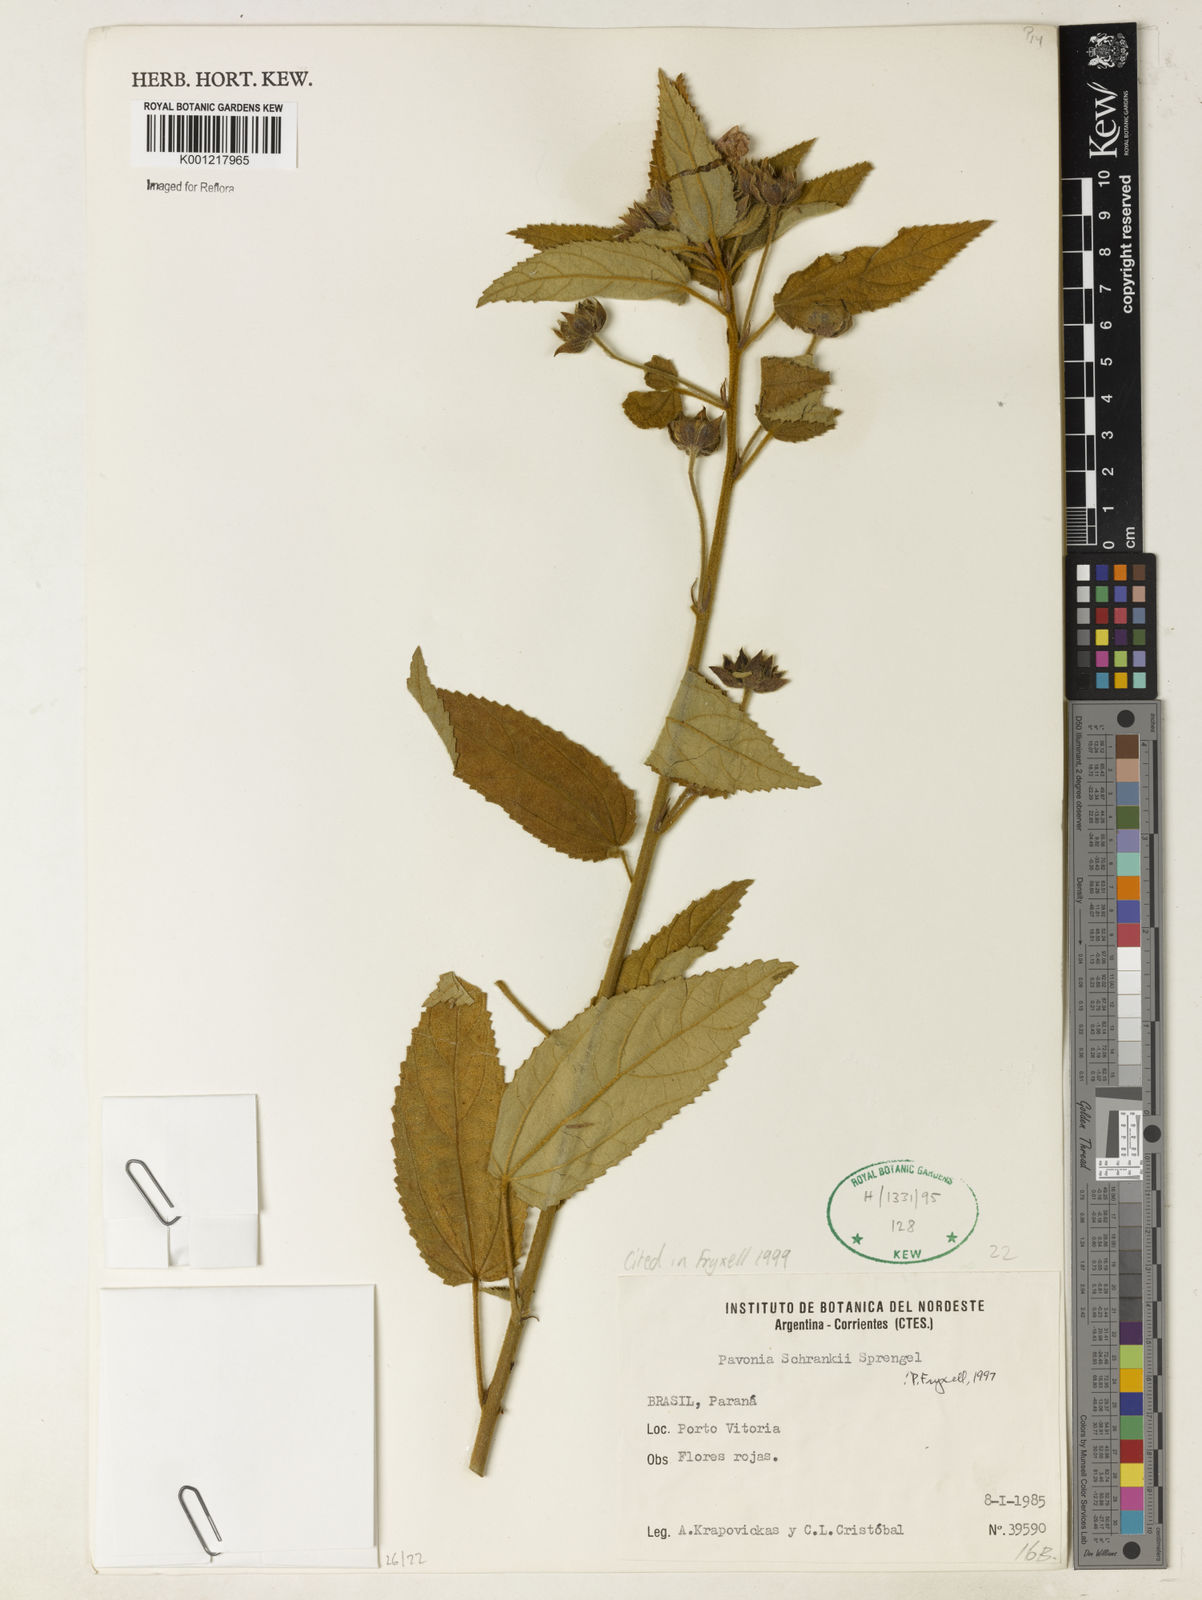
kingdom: Plantae
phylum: Tracheophyta
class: Magnoliopsida
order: Malvales
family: Malvaceae
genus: Pavonia
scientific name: Pavonia schrankii
